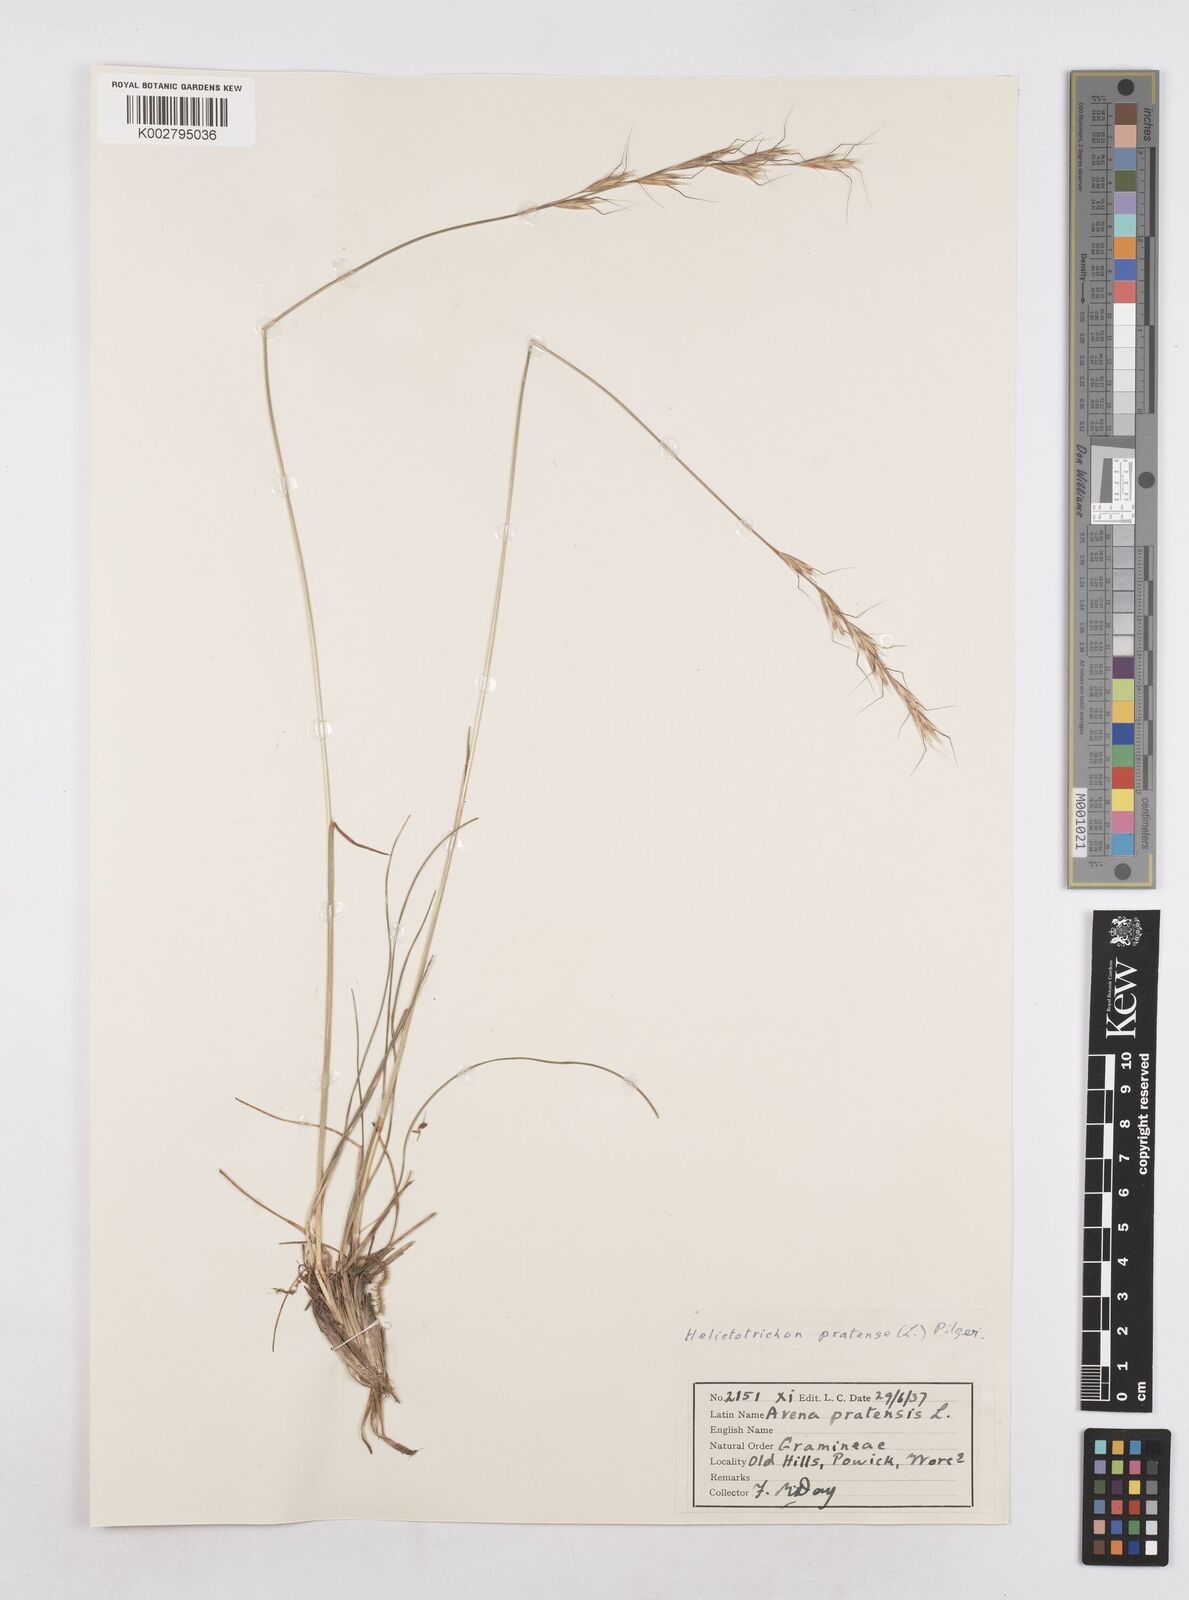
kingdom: Plantae
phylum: Tracheophyta
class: Liliopsida
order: Poales
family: Poaceae
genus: Helictochloa
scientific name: Helictochloa pratensis
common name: Meadow oat grass
